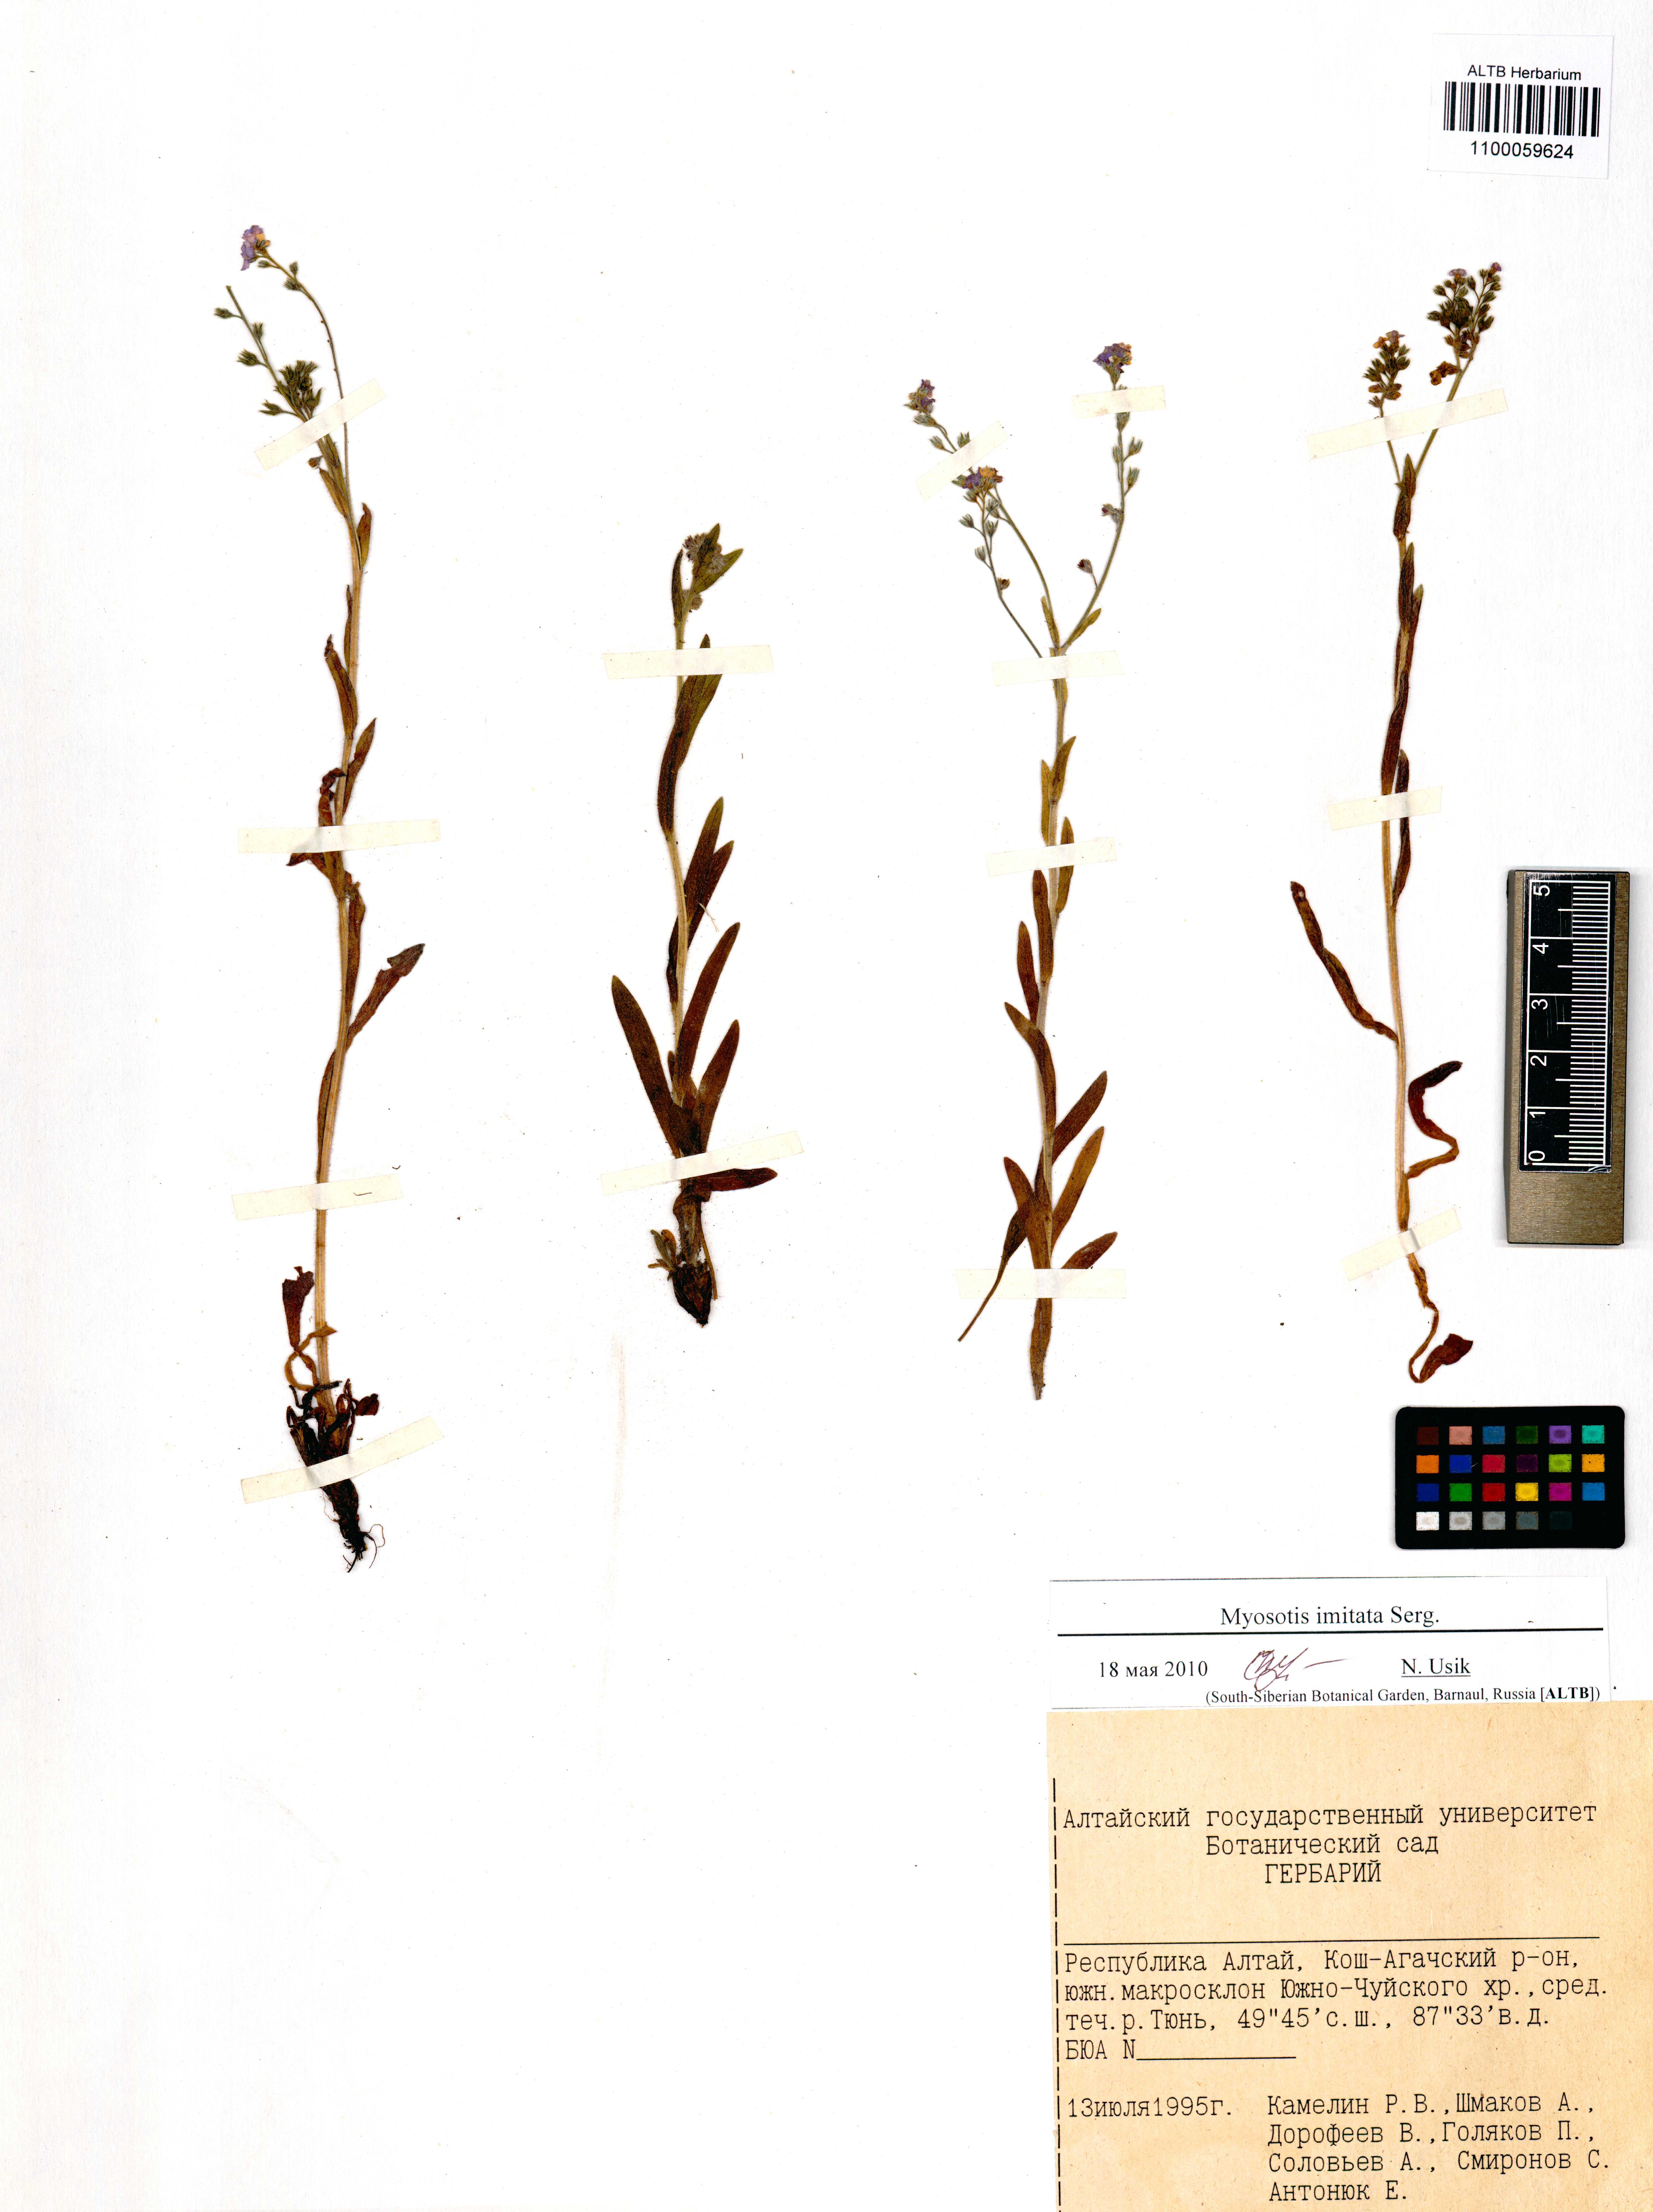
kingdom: Plantae
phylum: Tracheophyta
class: Magnoliopsida
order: Boraginales
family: Boraginaceae
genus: Myosotis
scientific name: Myosotis imitata
